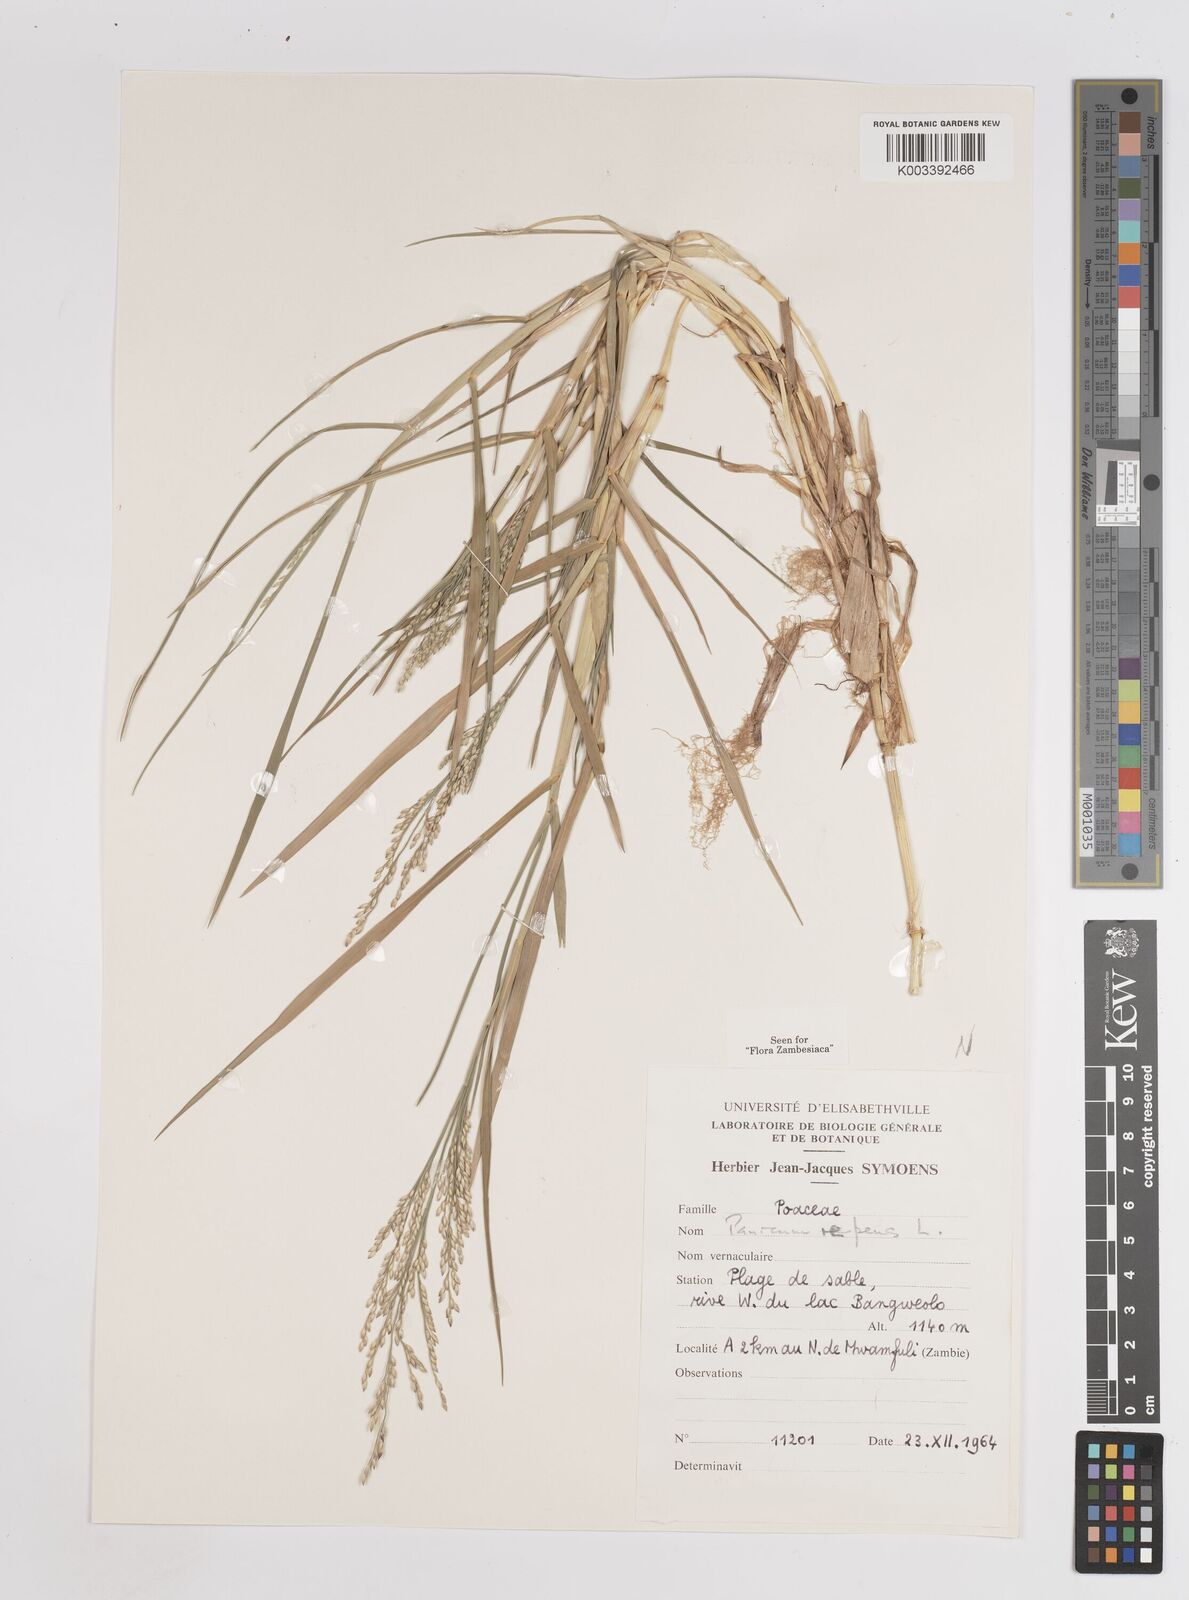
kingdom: Plantae
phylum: Tracheophyta
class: Liliopsida
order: Poales
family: Poaceae
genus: Panicum
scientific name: Panicum repens
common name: Torpedo grass
